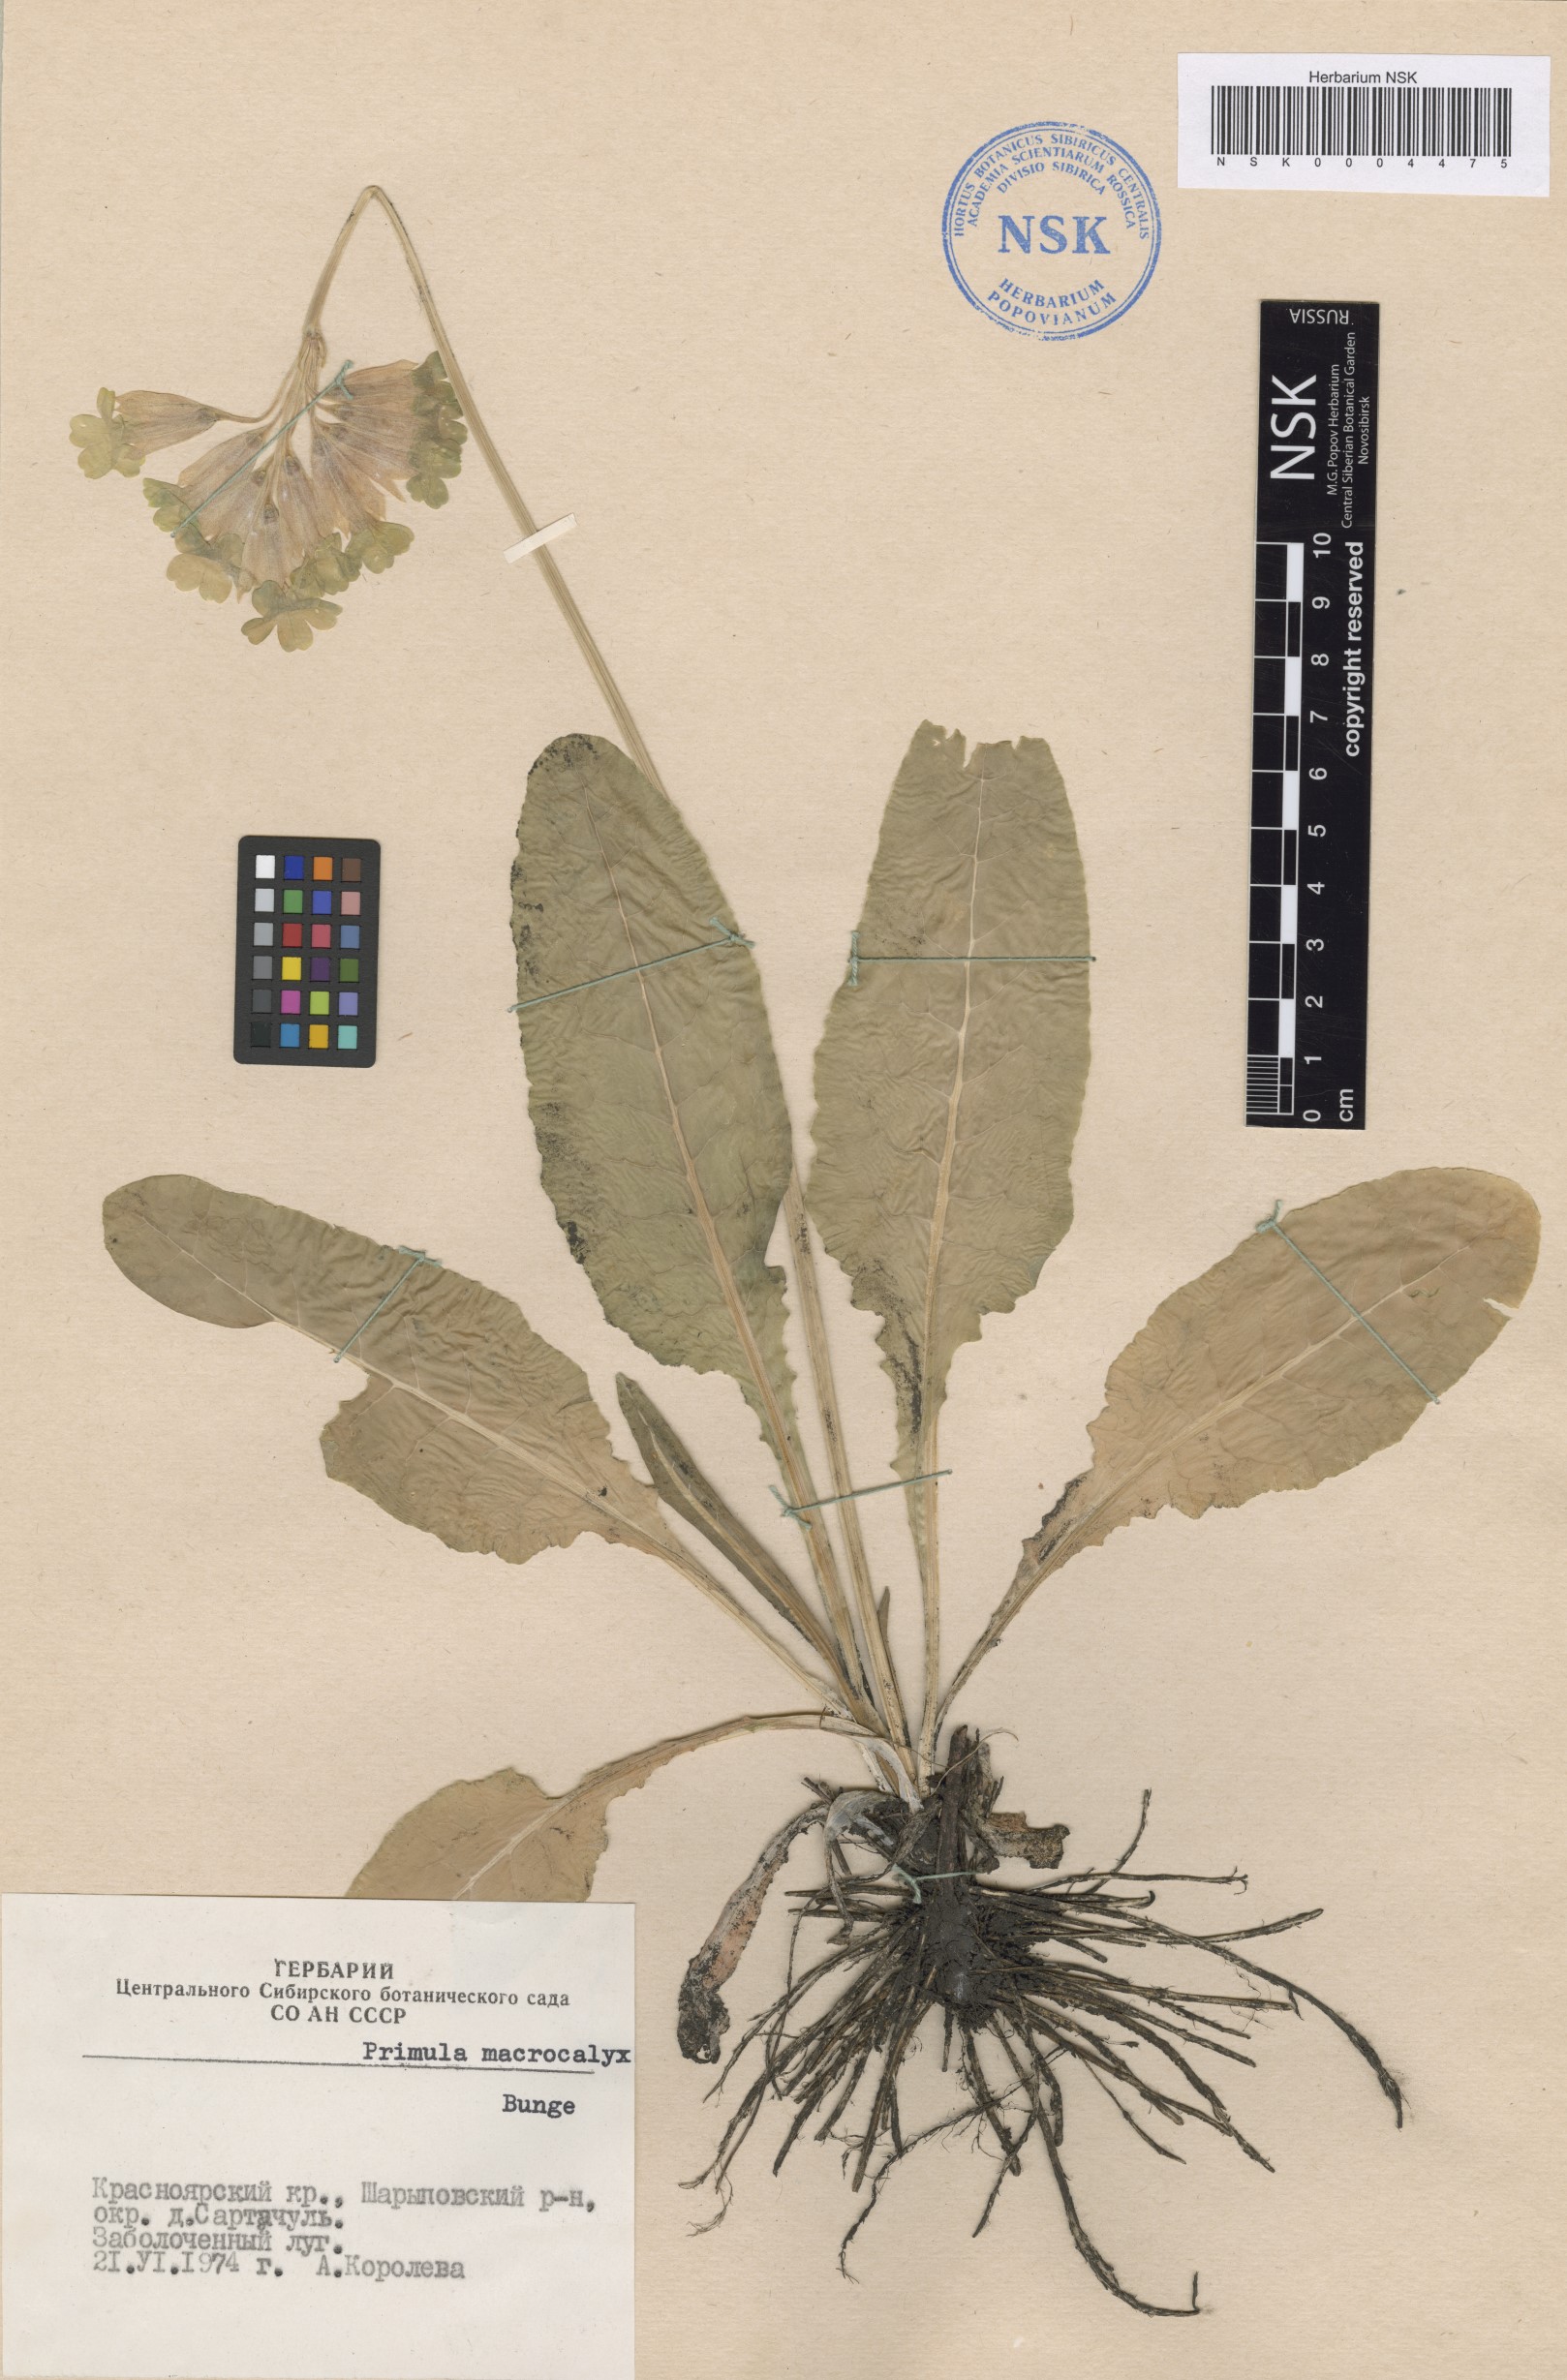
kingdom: Plantae
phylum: Tracheophyta
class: Magnoliopsida
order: Ericales
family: Primulaceae
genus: Primula
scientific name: Primula veris
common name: Cowslip
